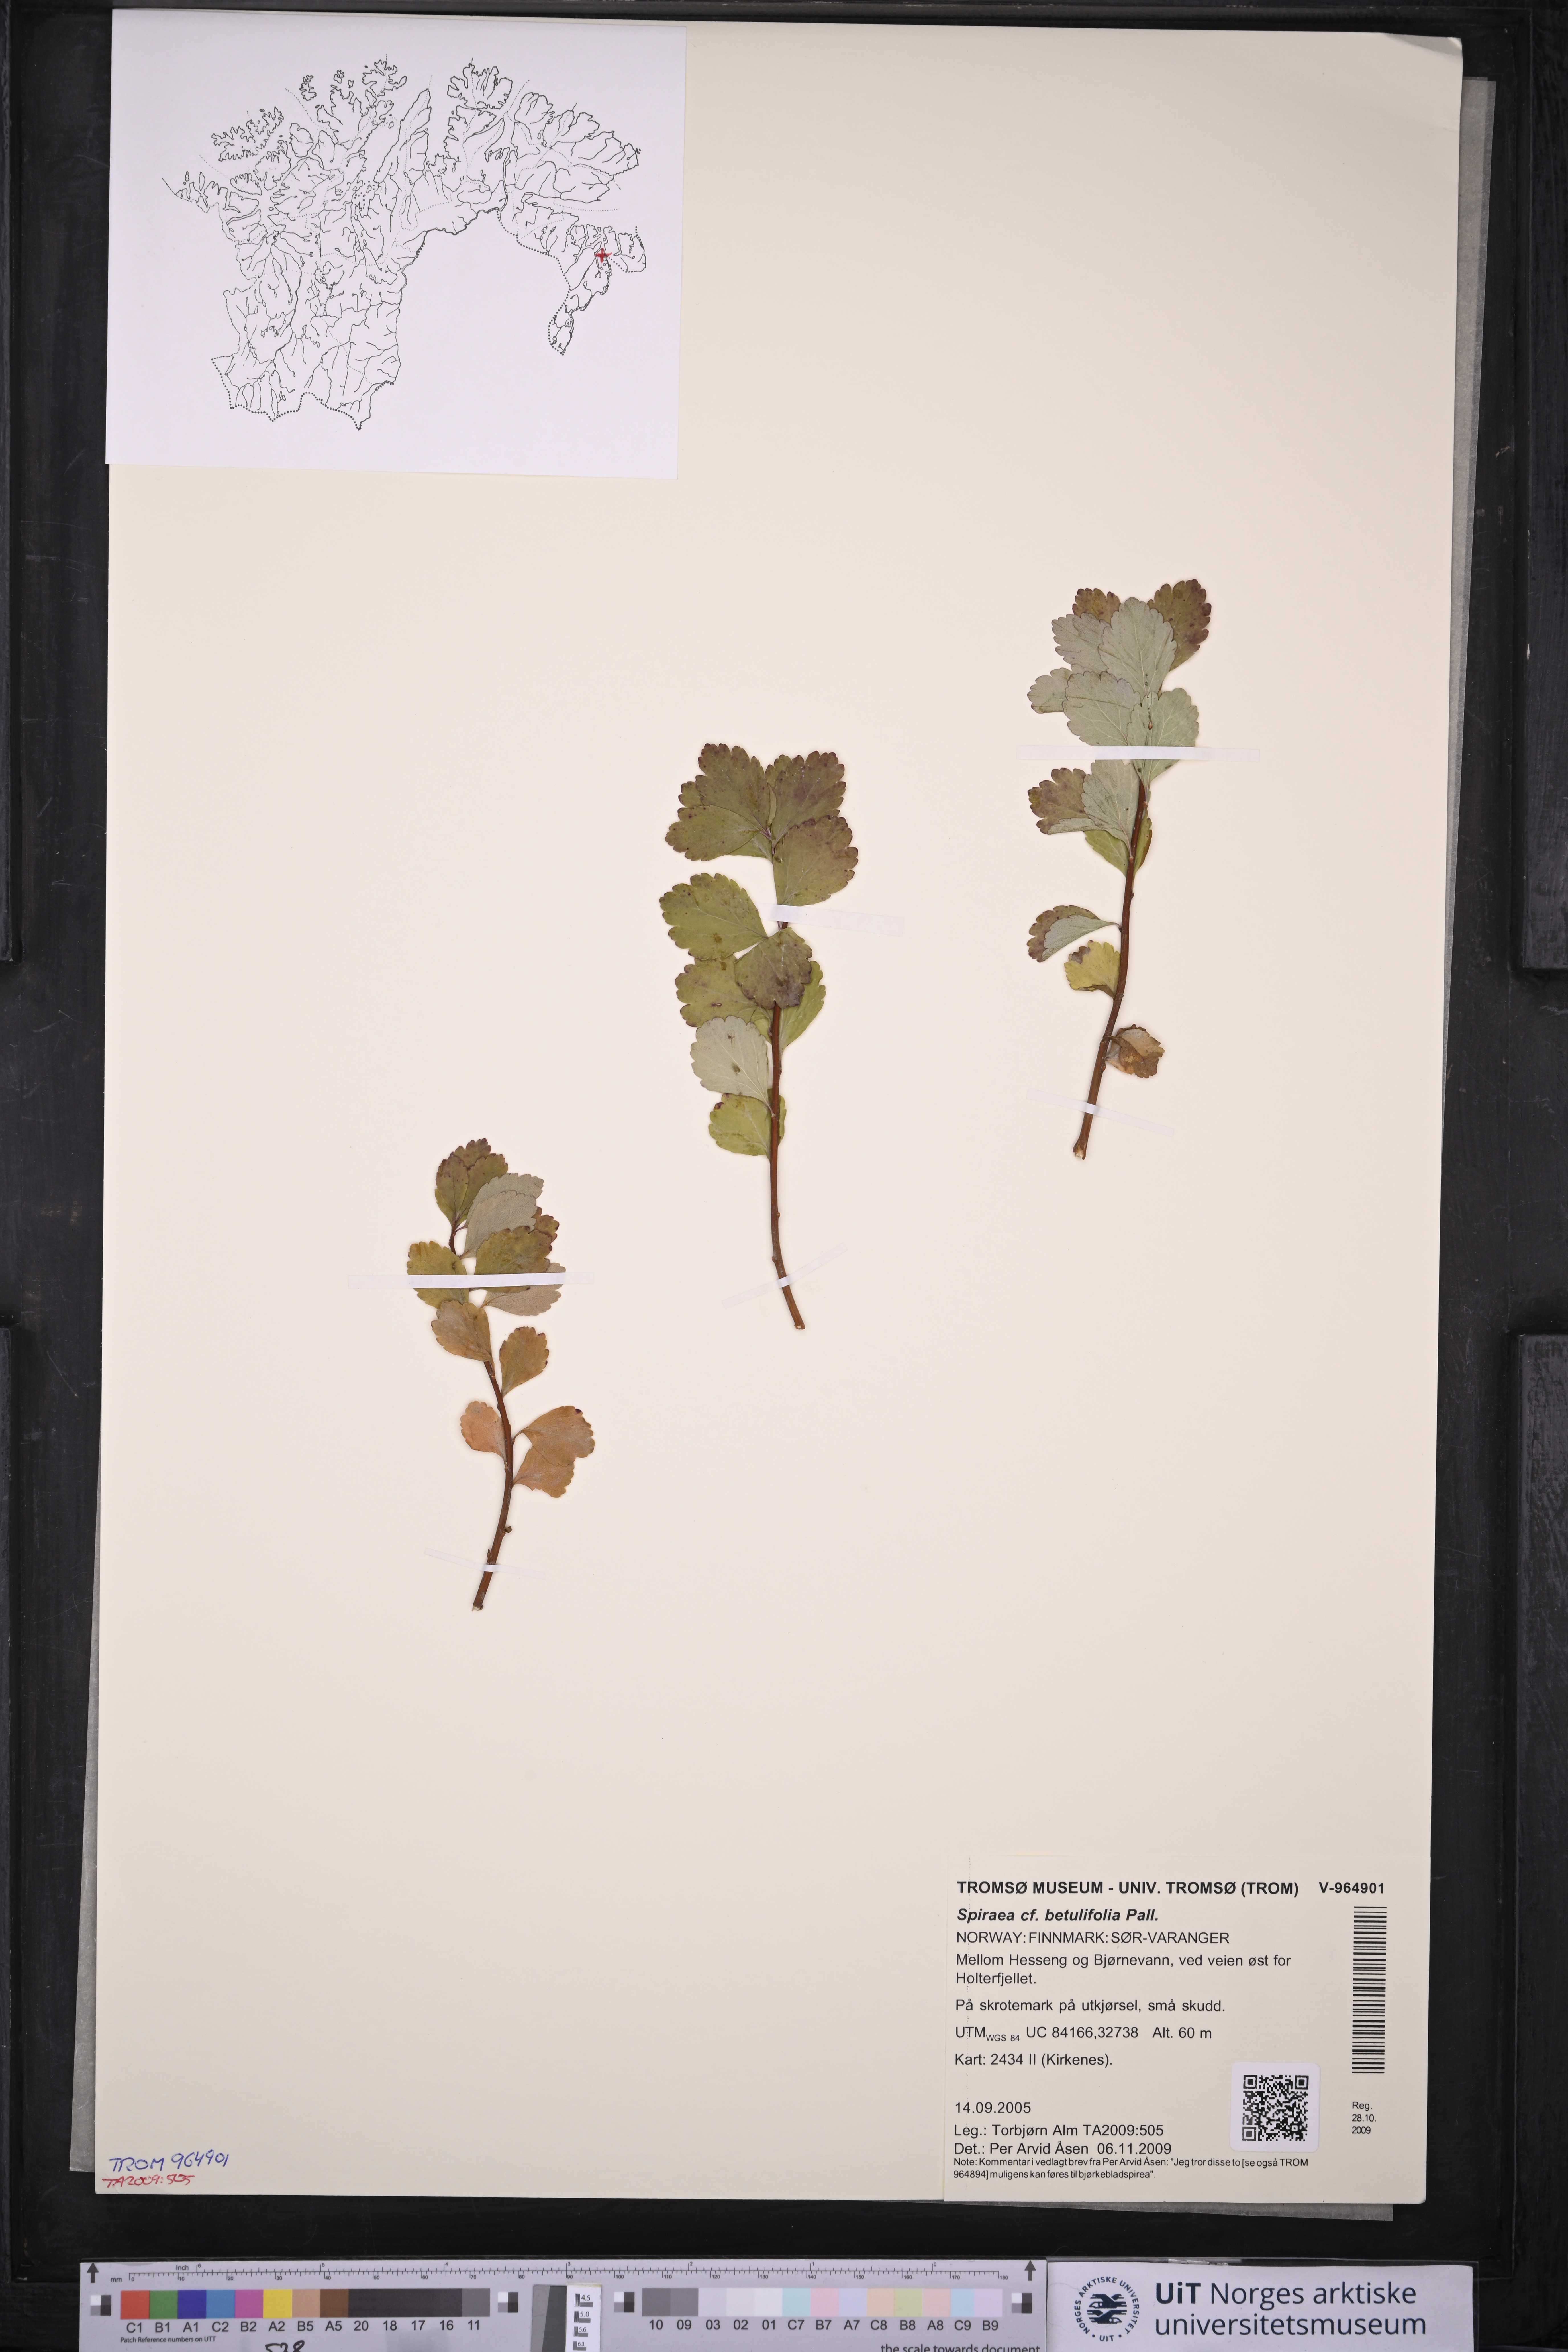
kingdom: Plantae
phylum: Tracheophyta
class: Magnoliopsida
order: Rosales
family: Rosaceae
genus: Spiraea
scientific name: Spiraea betulifolia
